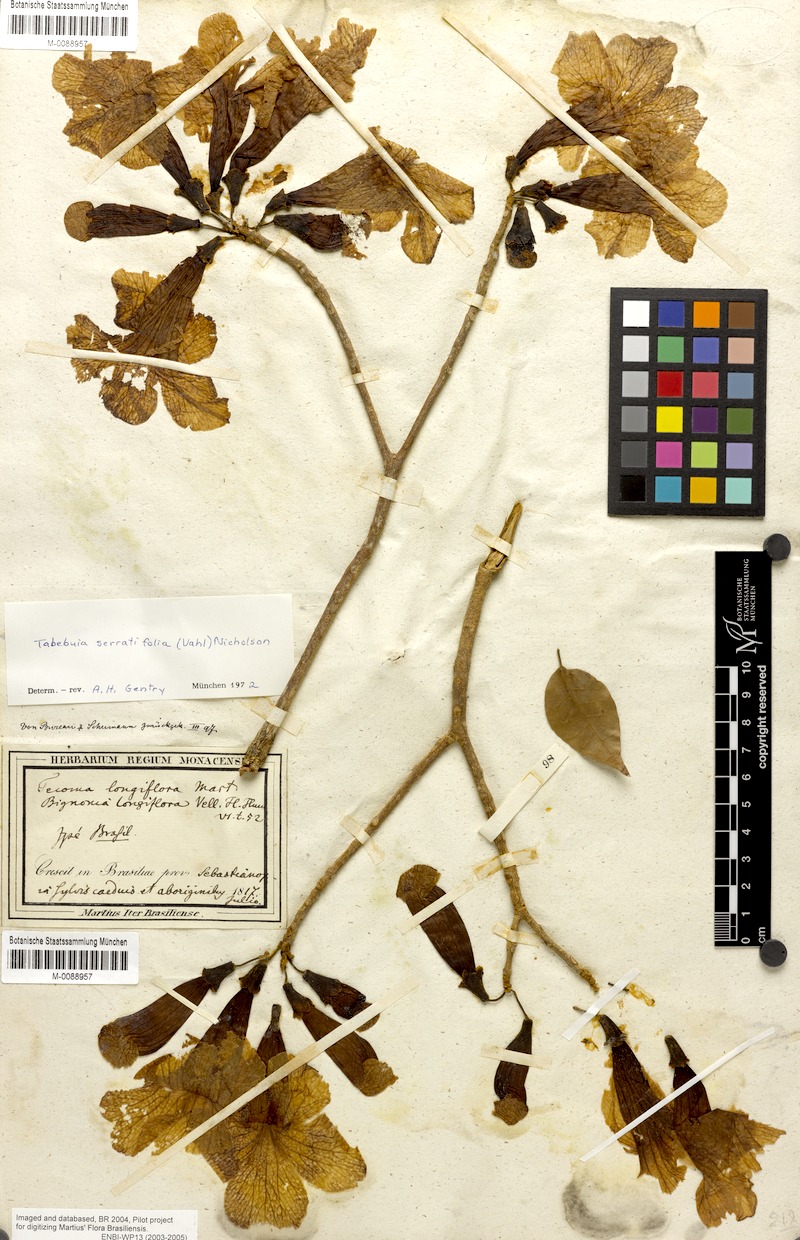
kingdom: Plantae
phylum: Tracheophyta
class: Magnoliopsida
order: Lamiales
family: Bignoniaceae
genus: Handroanthus
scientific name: Handroanthus serratifolius
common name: Yellow ipe
